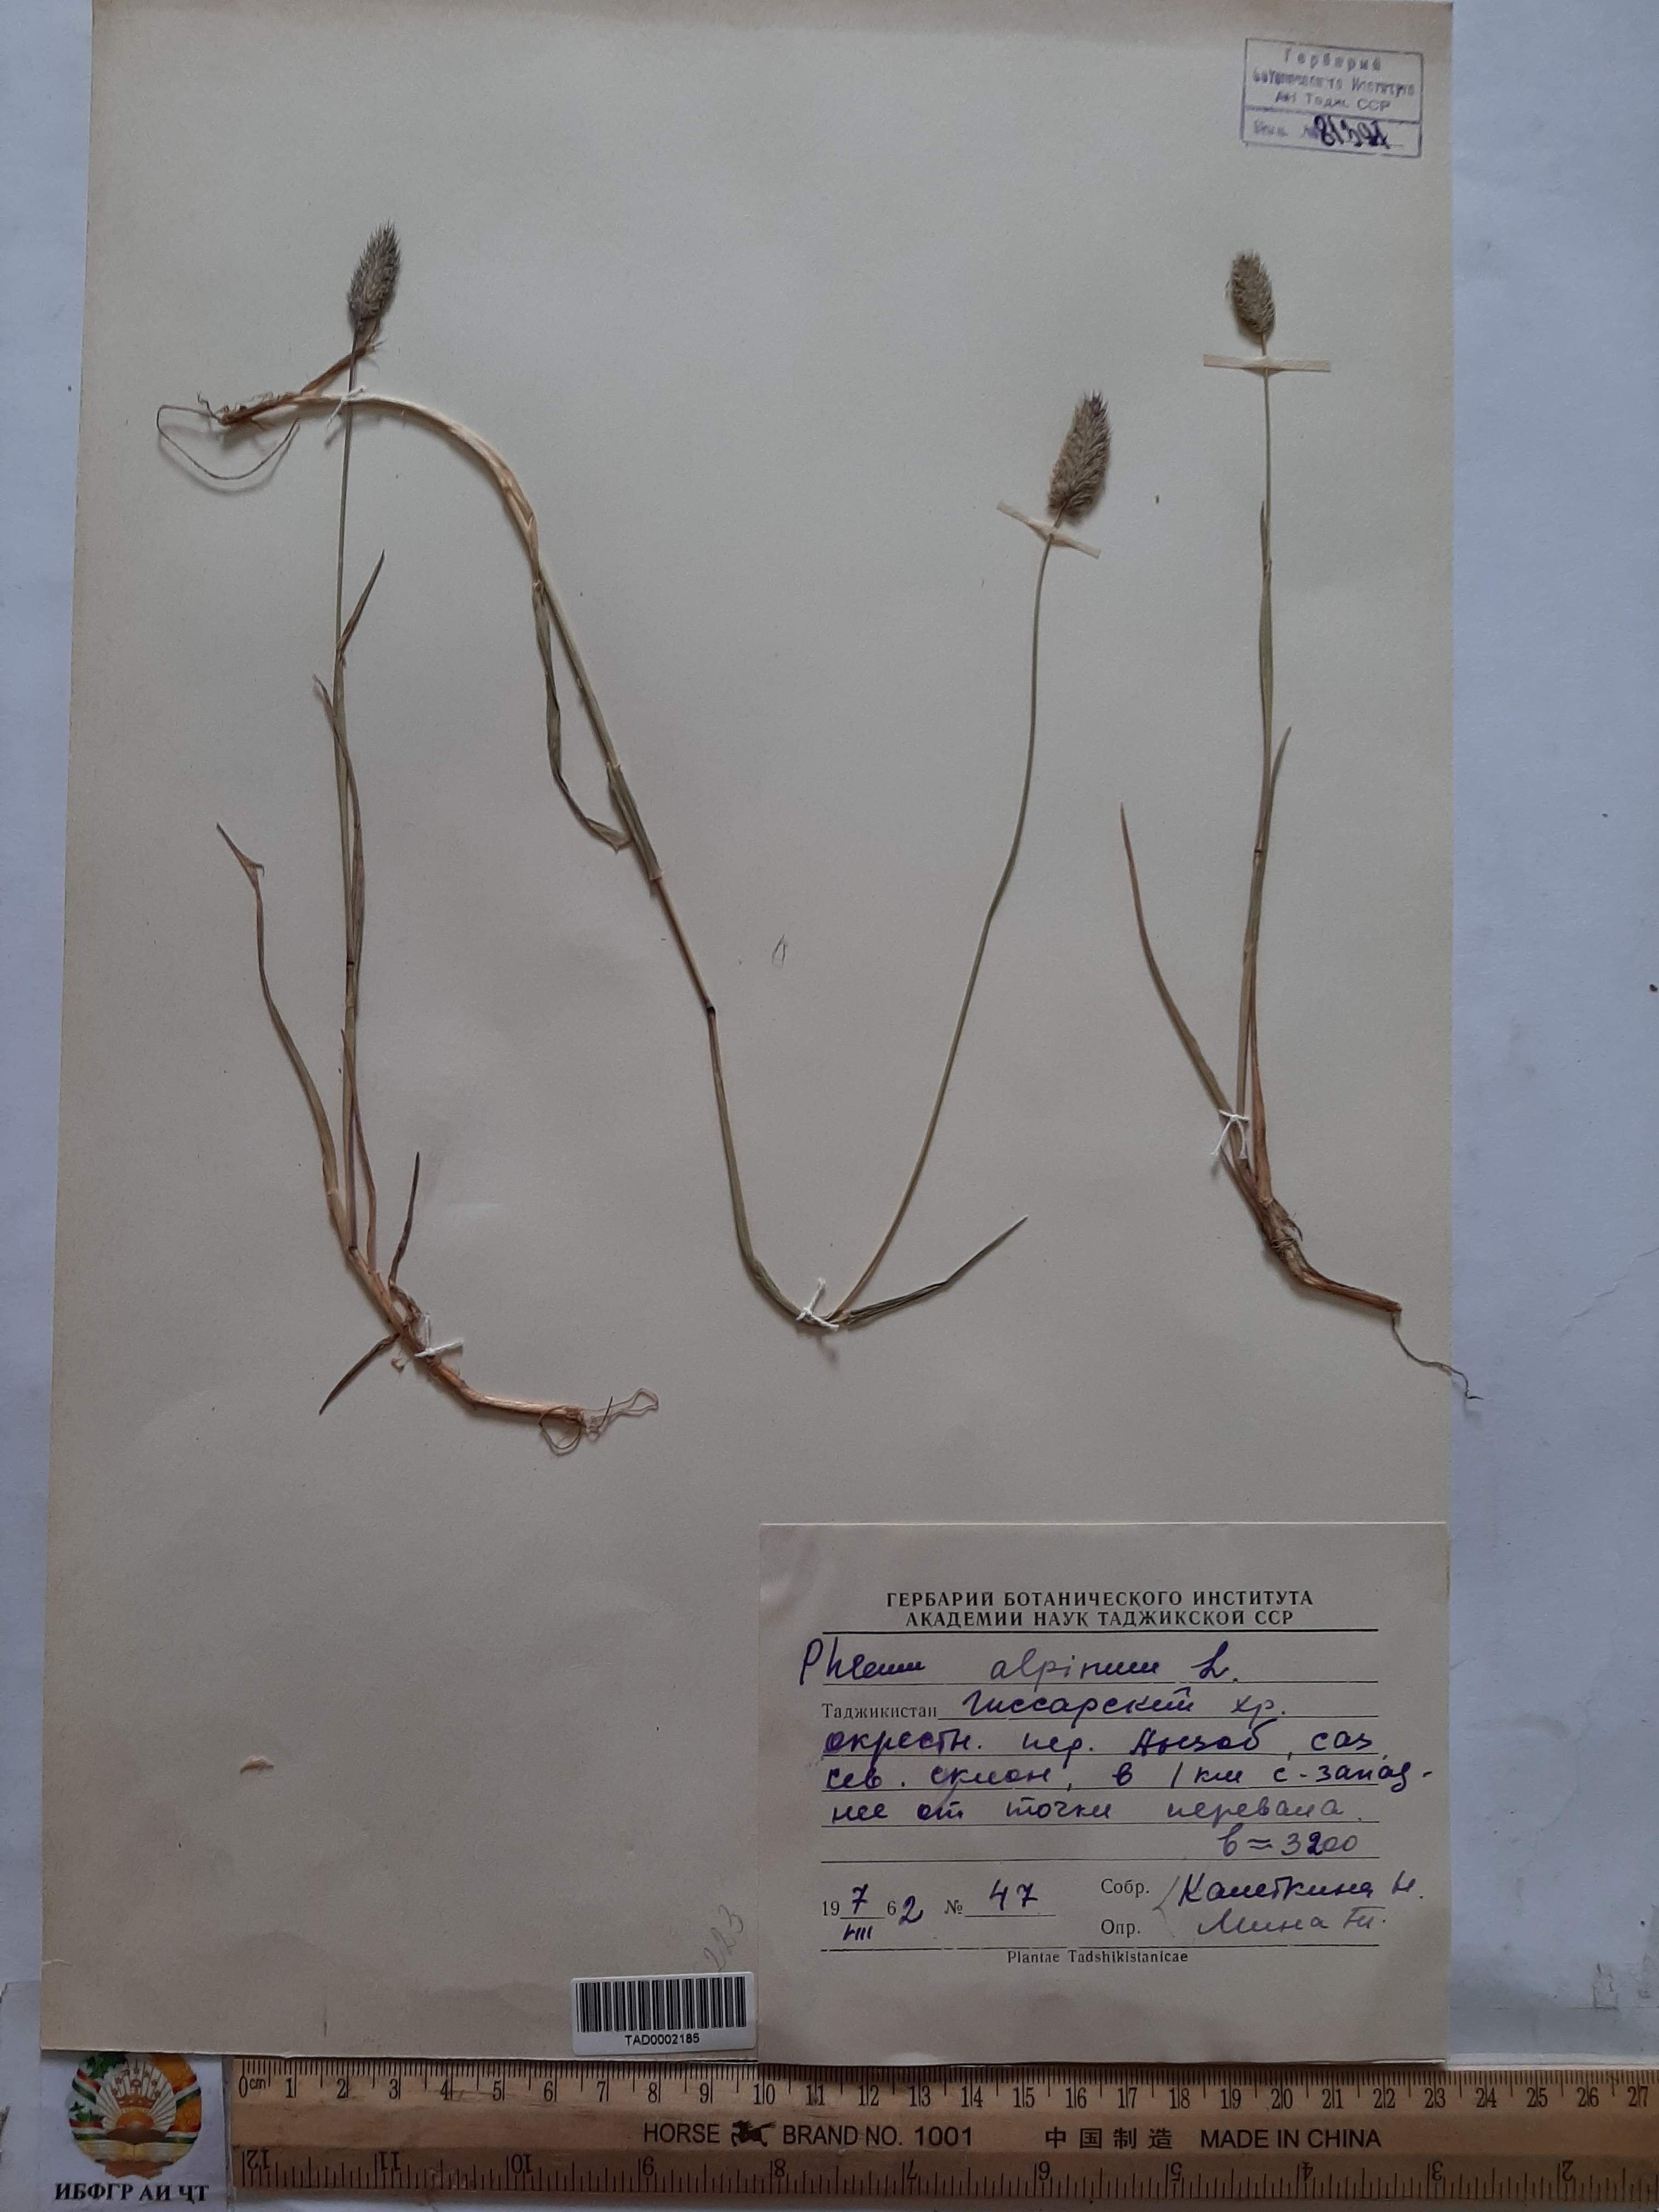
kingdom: Plantae
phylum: Tracheophyta
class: Liliopsida
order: Poales
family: Poaceae
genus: Phleum
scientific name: Phleum alpinum
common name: Alpine cat's-tail
